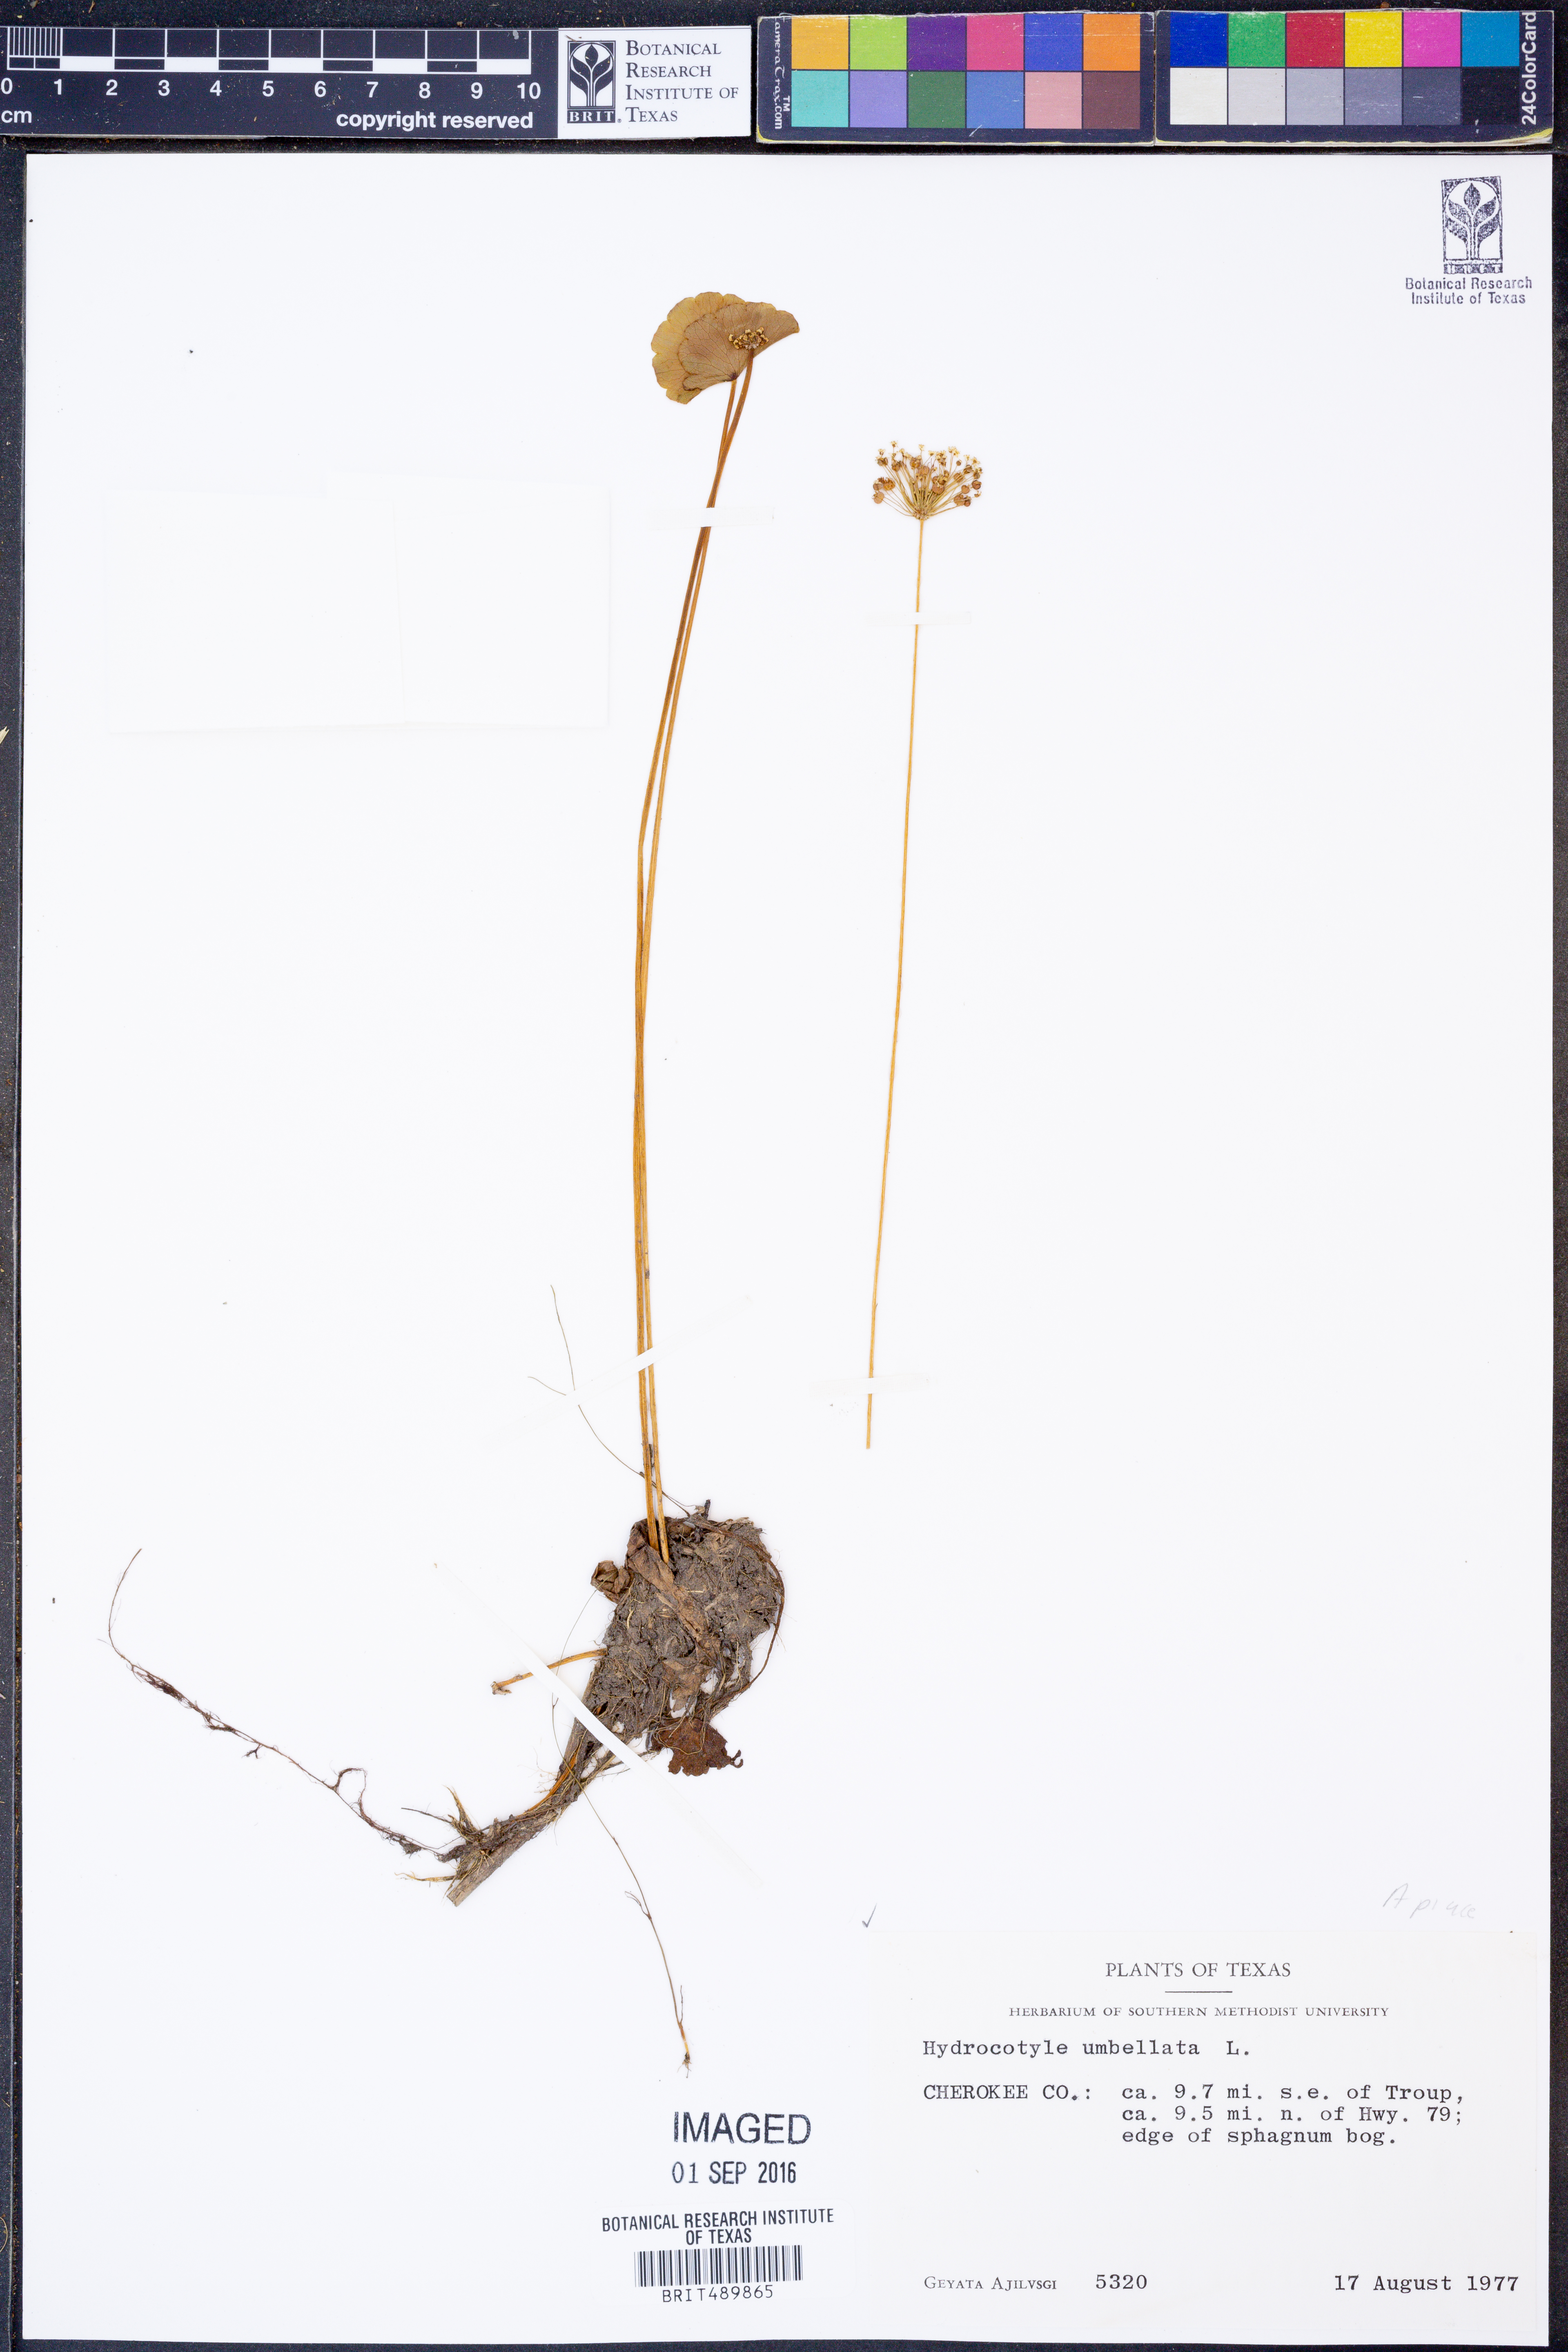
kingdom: Plantae
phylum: Tracheophyta
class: Magnoliopsida
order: Apiales
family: Araliaceae
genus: Hydrocotyle
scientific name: Hydrocotyle umbellata
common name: Water pennywort
